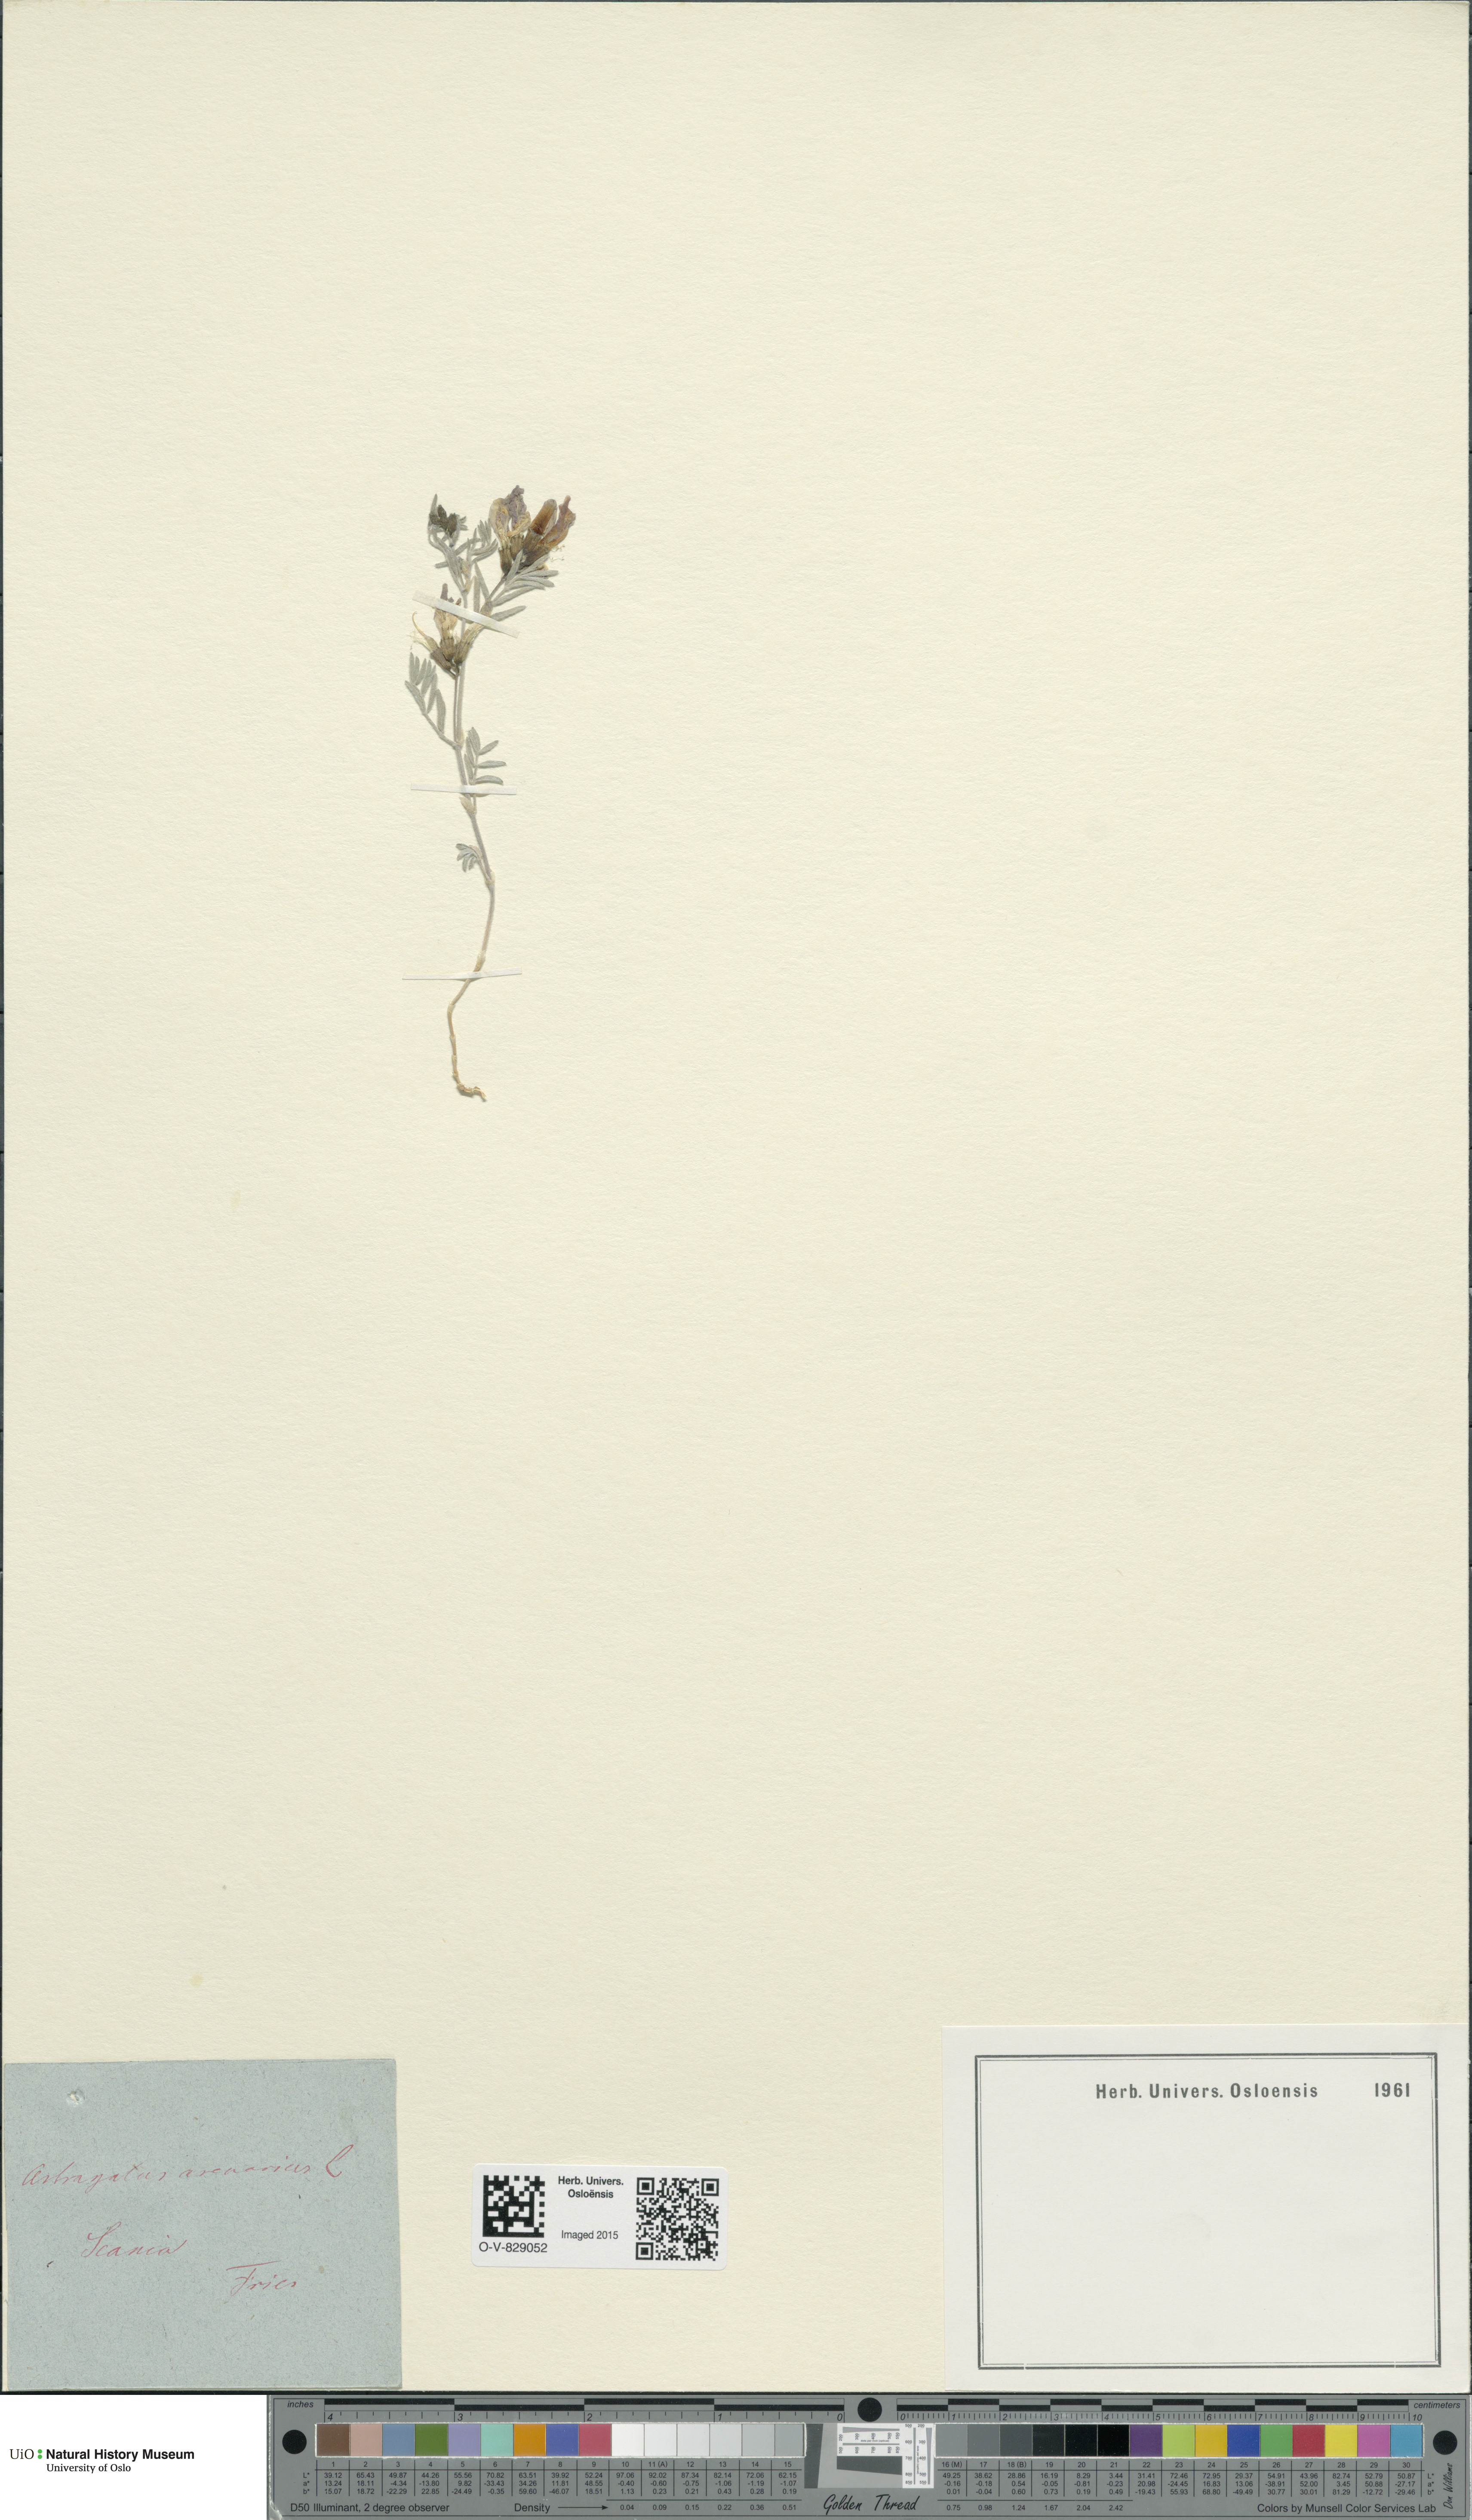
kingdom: Plantae
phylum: Tracheophyta
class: Magnoliopsida
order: Fabales
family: Fabaceae
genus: Astragalus
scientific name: Astragalus arenarius
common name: Arenarious milk-vetch
